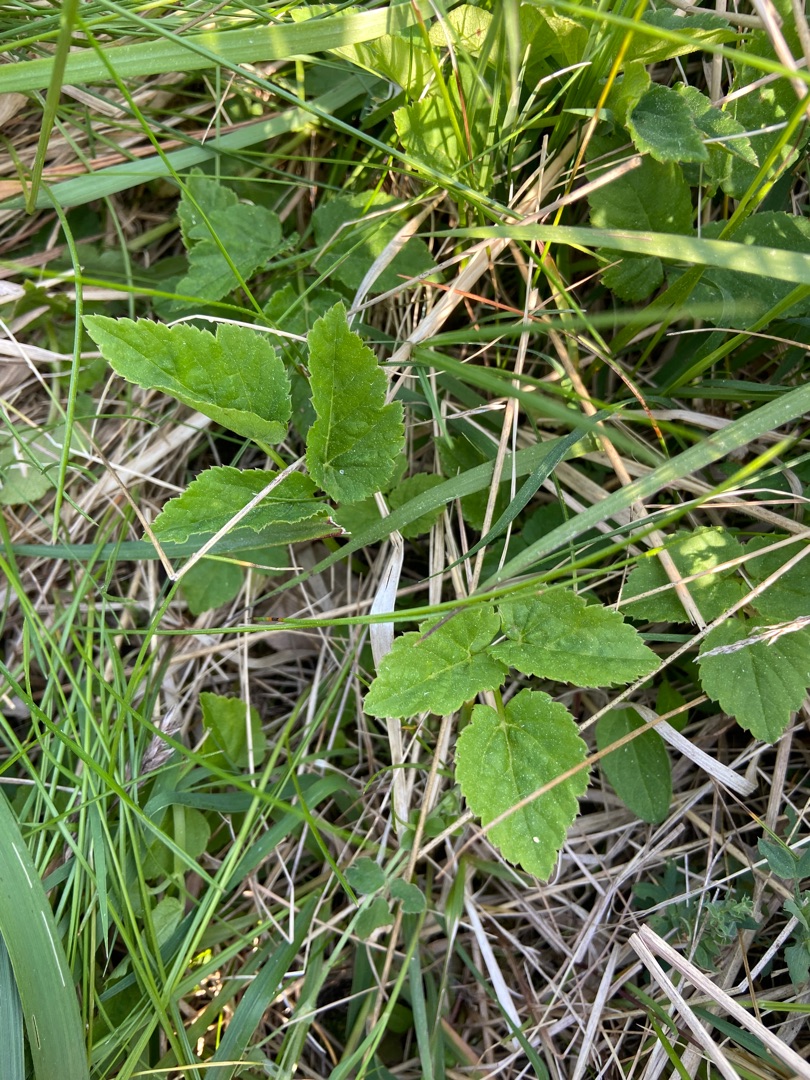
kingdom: Plantae
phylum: Tracheophyta
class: Magnoliopsida
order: Apiales
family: Apiaceae
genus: Aegopodium
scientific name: Aegopodium podagraria
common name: Skvalderkål
